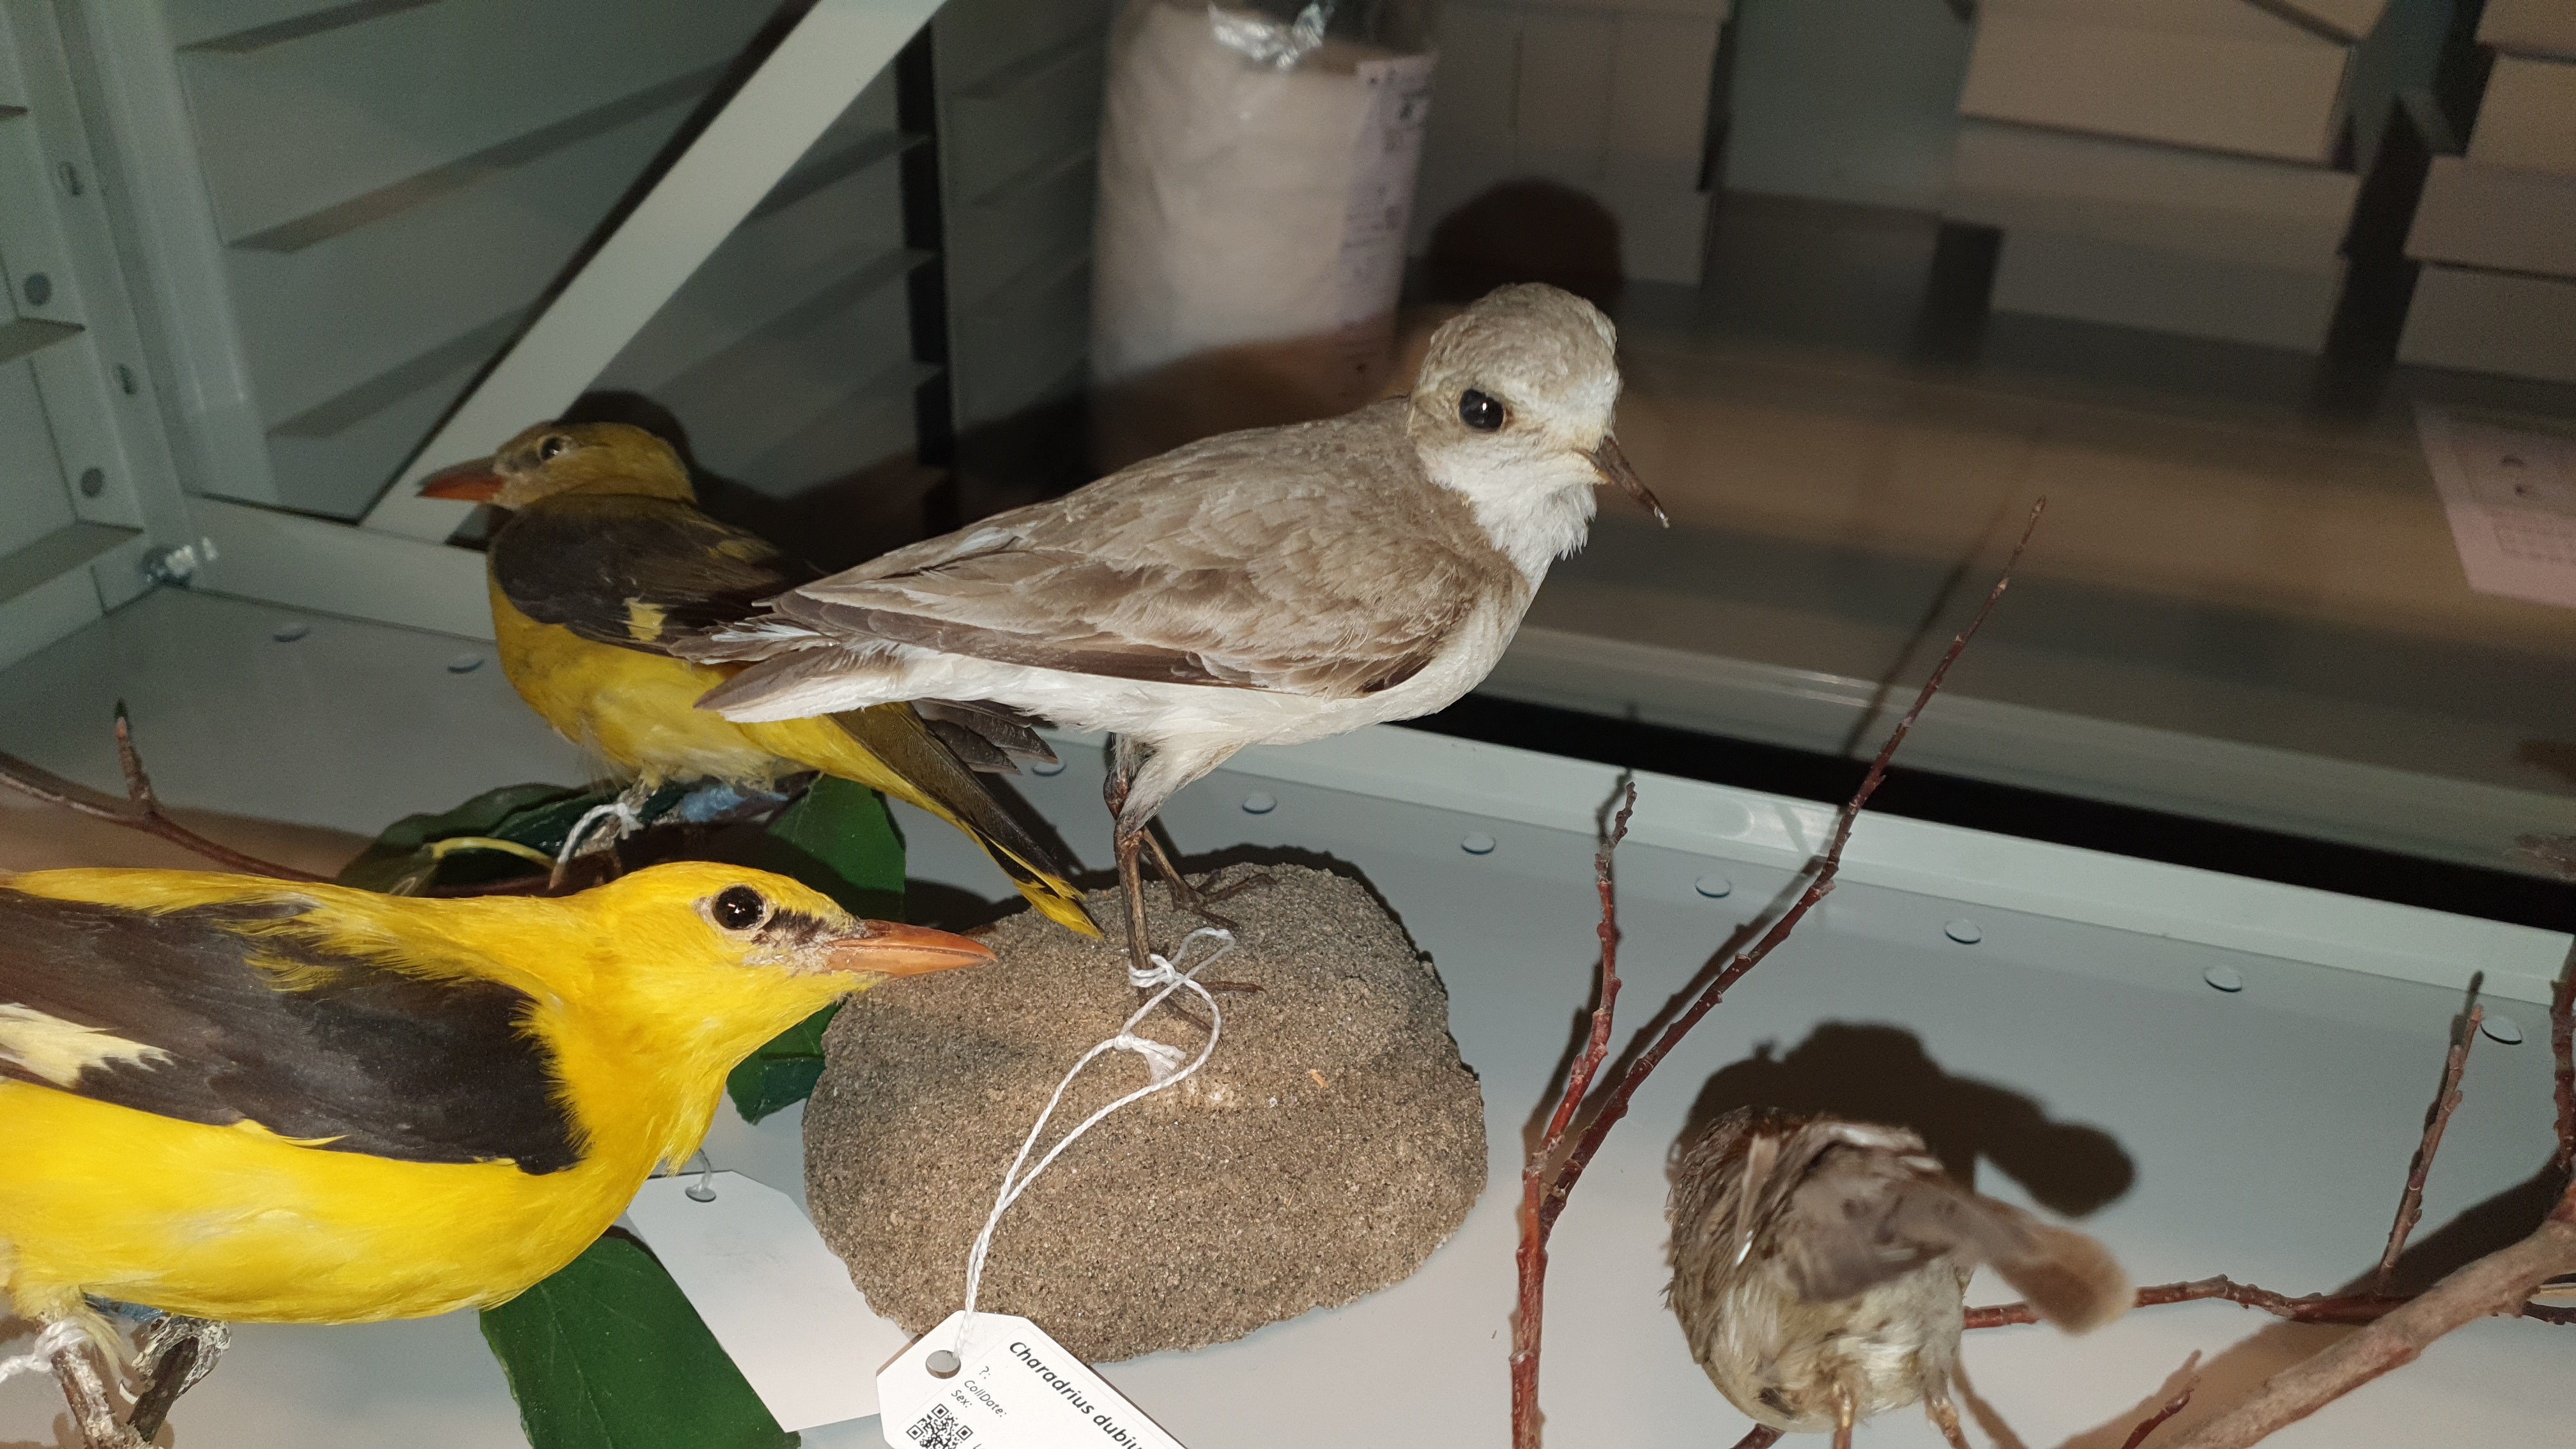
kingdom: Animalia
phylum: Chordata
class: Aves
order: Charadriiformes
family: Charadriidae
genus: Charadrius
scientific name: Charadrius alexandrinus
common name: Kentish plover
